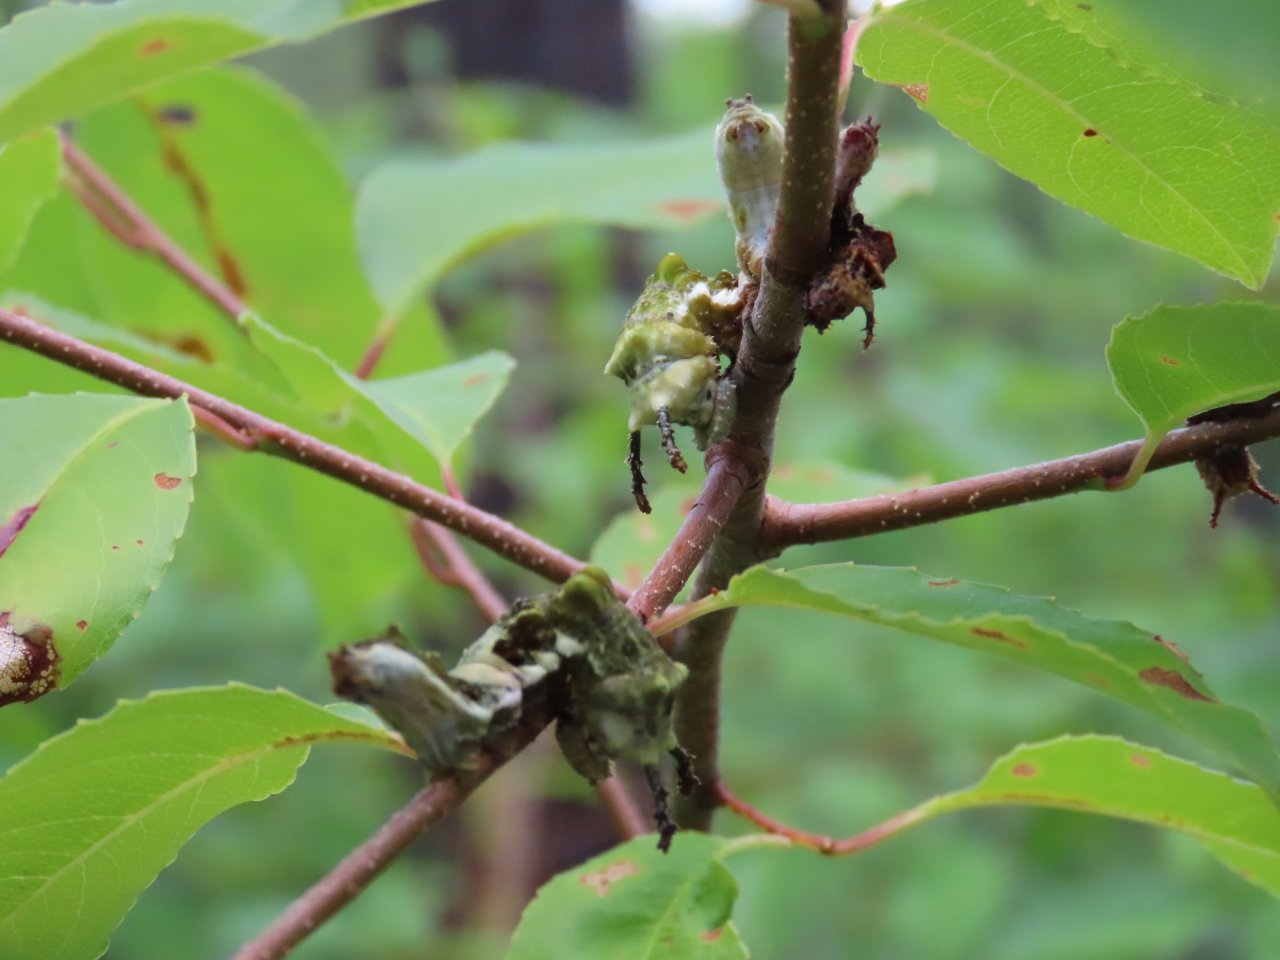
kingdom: Animalia
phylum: Arthropoda
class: Insecta
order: Lepidoptera
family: Nymphalidae
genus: Limenitis
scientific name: Limenitis astyanax
